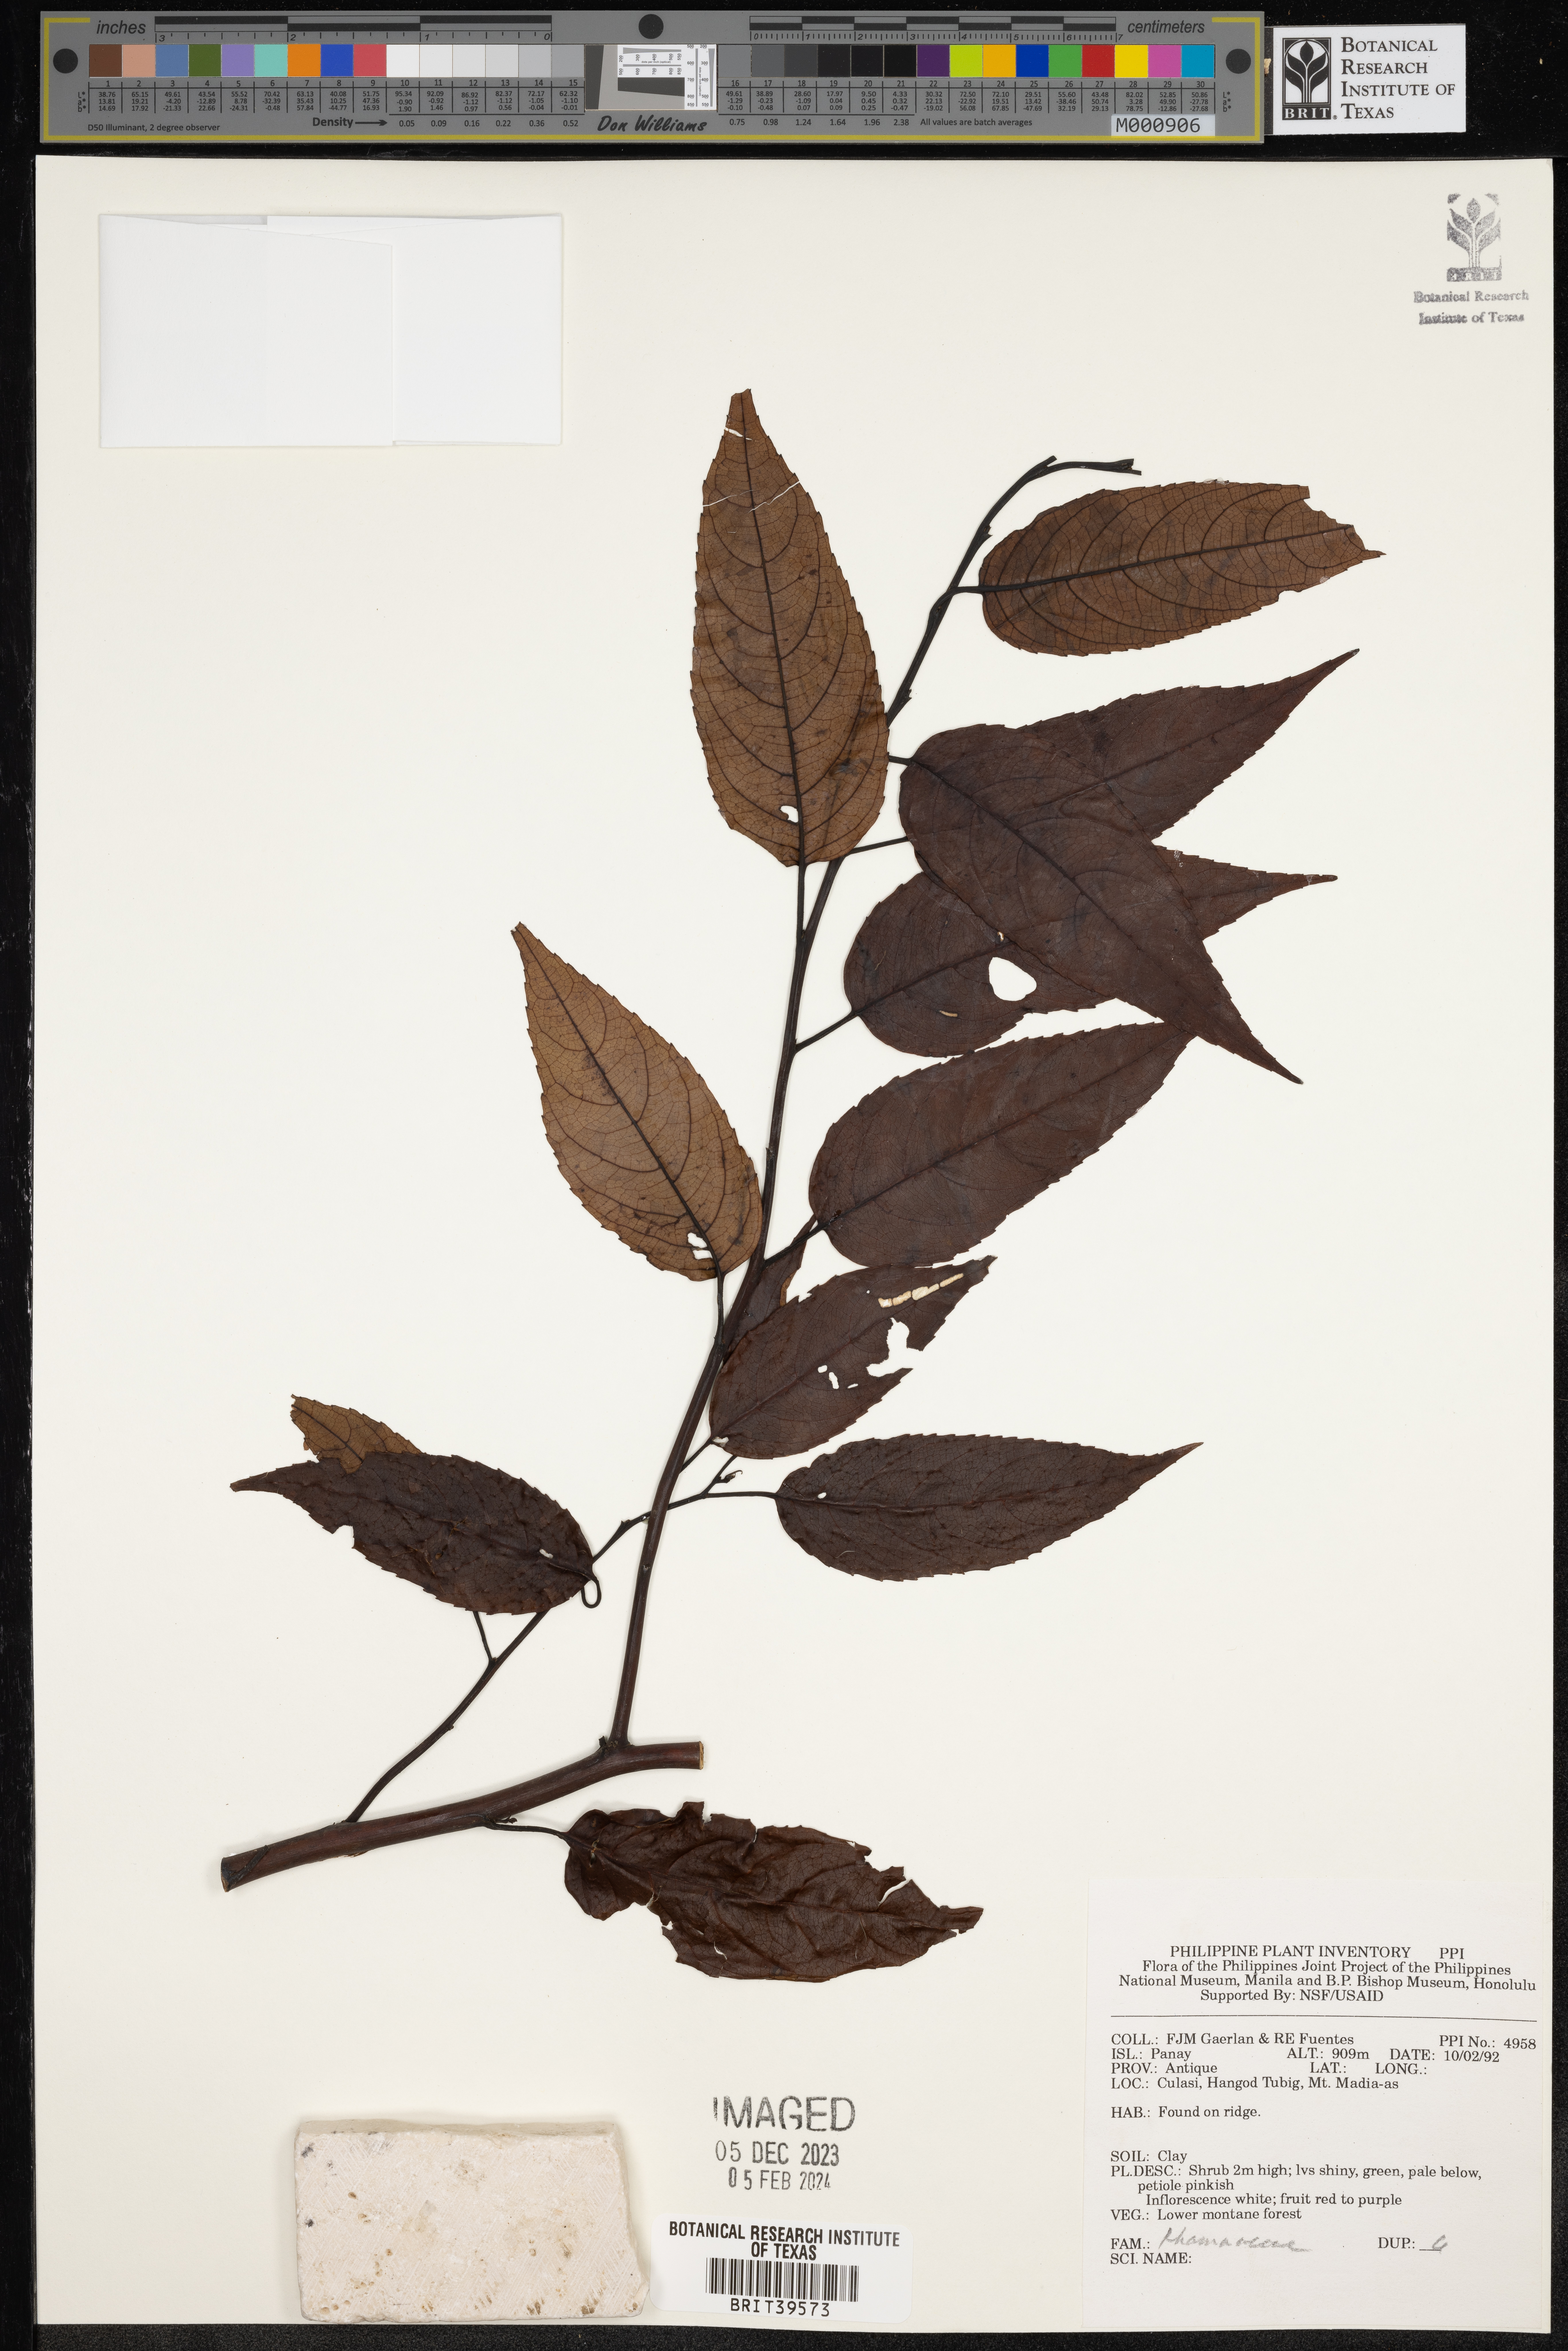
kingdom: Plantae
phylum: Tracheophyta
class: Magnoliopsida
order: Rosales
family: Rhamnaceae
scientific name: Rhamnaceae
